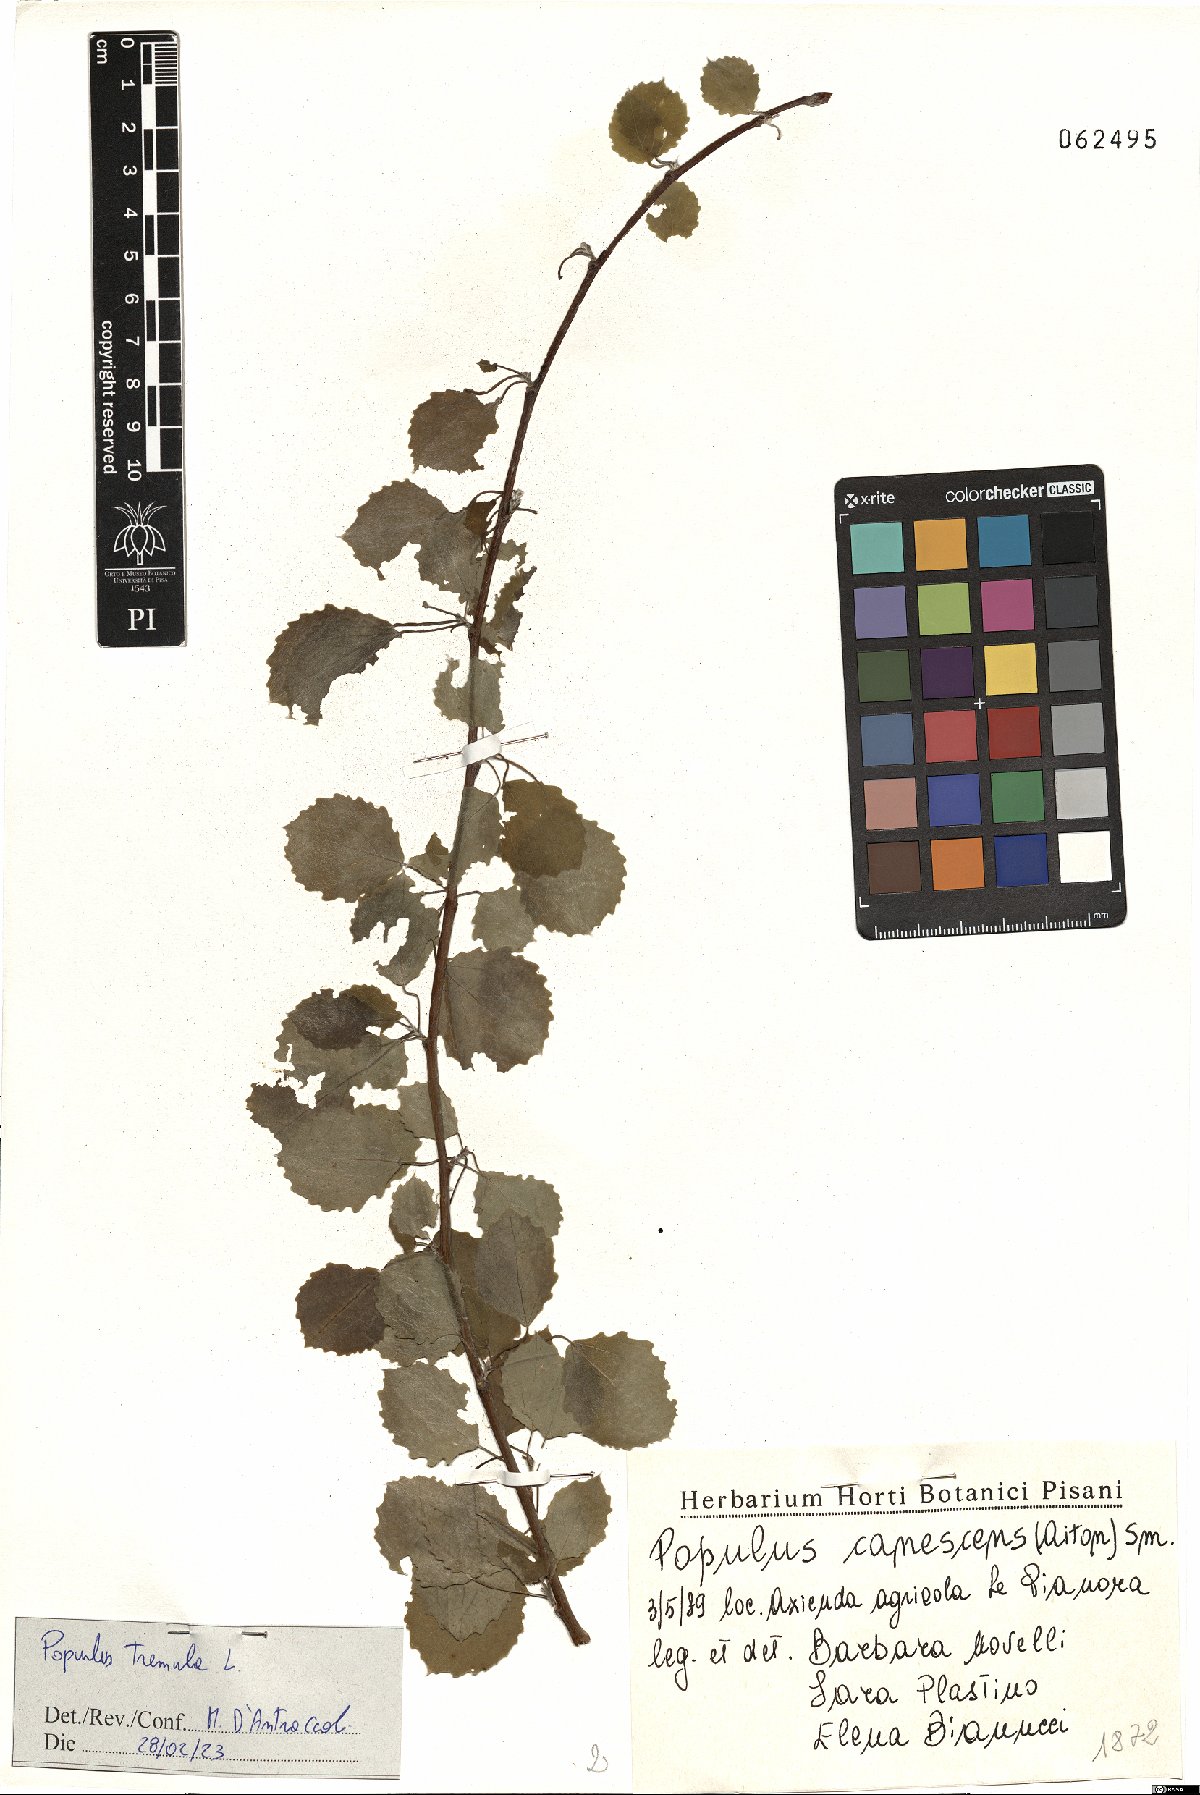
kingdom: Plantae
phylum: Tracheophyta
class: Magnoliopsida
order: Malpighiales
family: Salicaceae
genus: Populus
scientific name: Populus tremula
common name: European aspen
